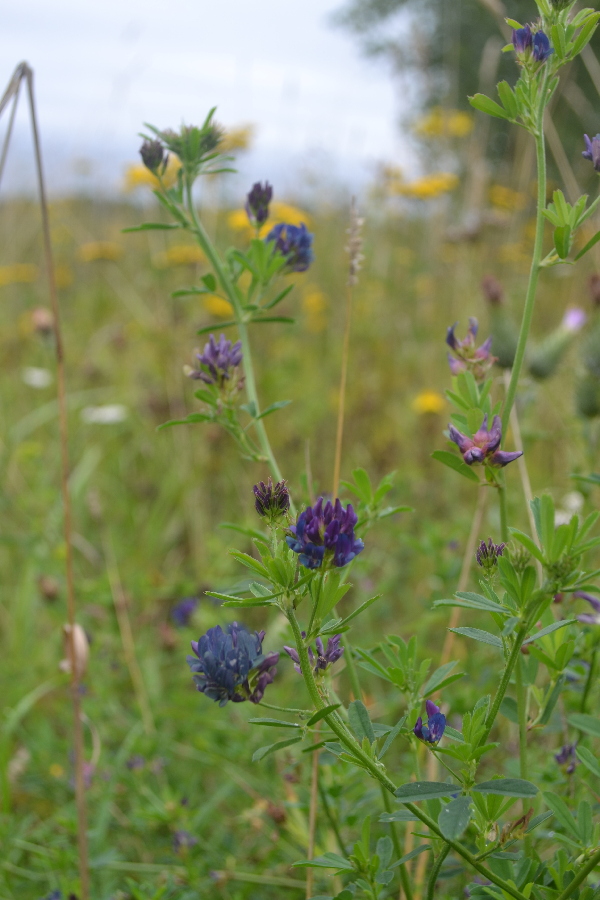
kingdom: Plantae
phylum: Tracheophyta
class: Magnoliopsida
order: Fabales
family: Fabaceae
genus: Medicago
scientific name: Medicago sativa
